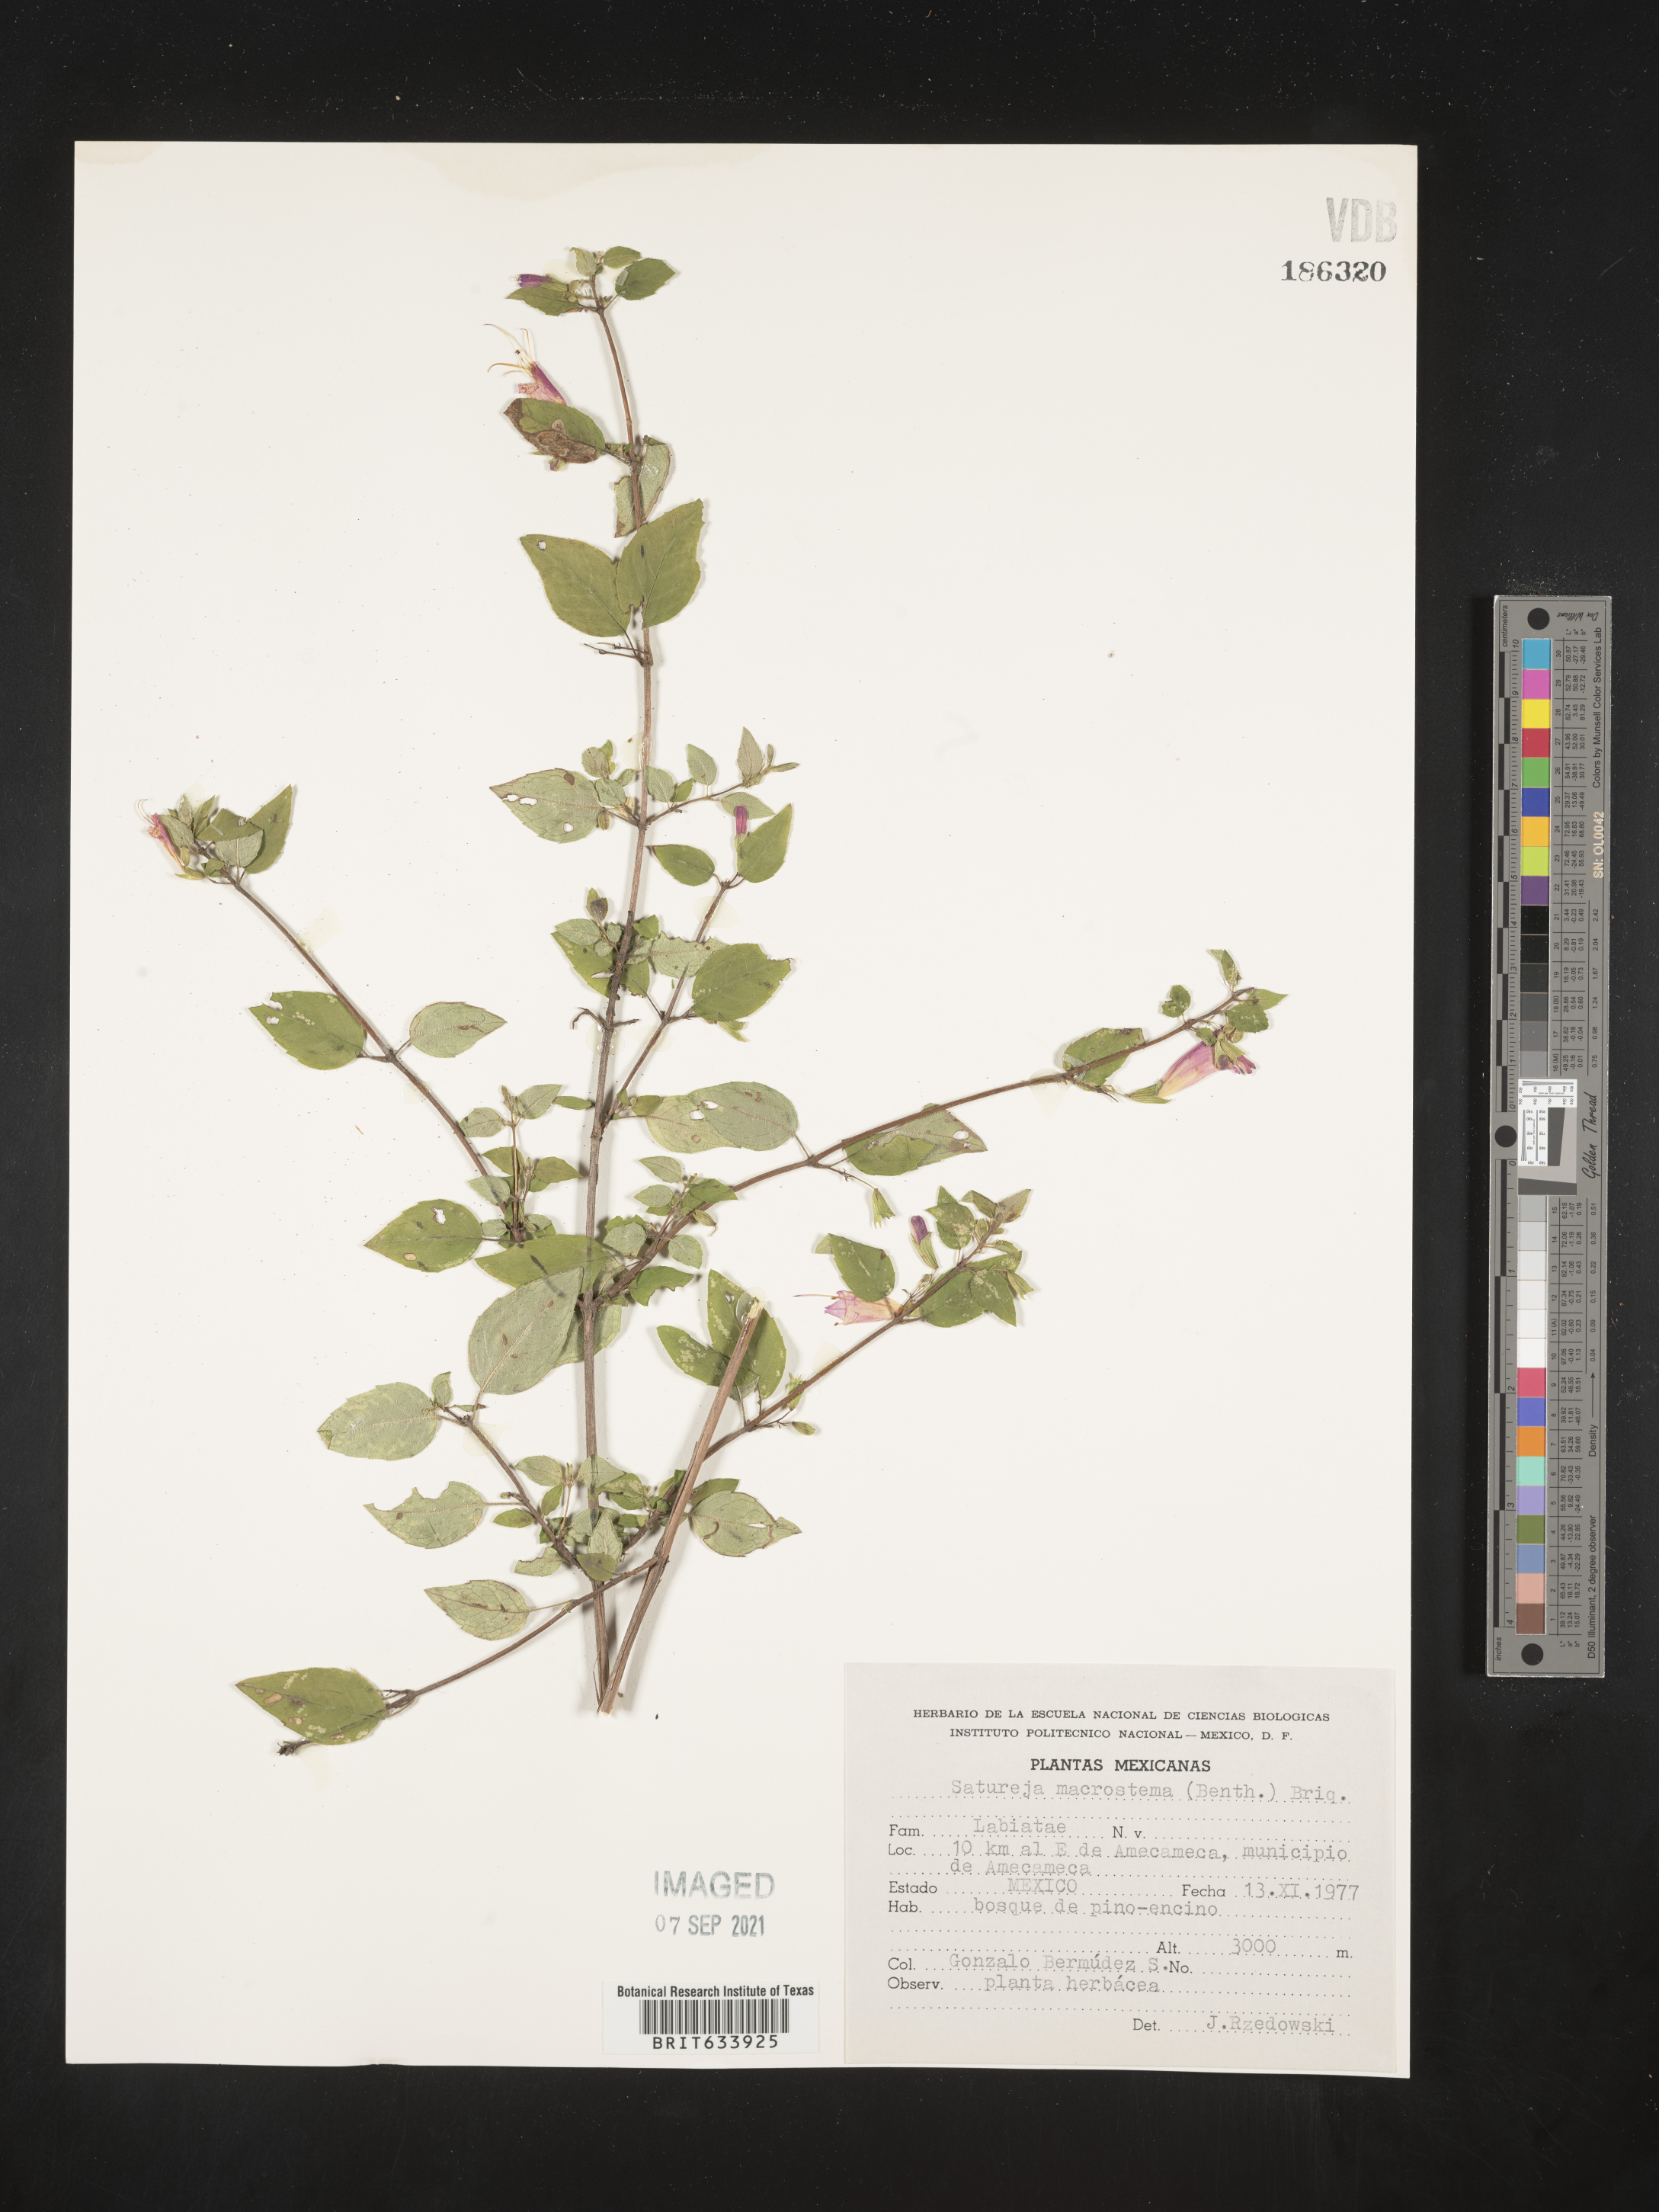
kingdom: Plantae
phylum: Tracheophyta
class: Magnoliopsida
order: Lamiales
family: Lamiaceae
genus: Satureja
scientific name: Satureja
